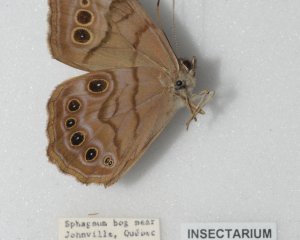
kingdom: Animalia
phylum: Arthropoda
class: Insecta
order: Lepidoptera
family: Nymphalidae
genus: Lethe
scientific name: Lethe anthedon
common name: Northern Pearly-Eye
